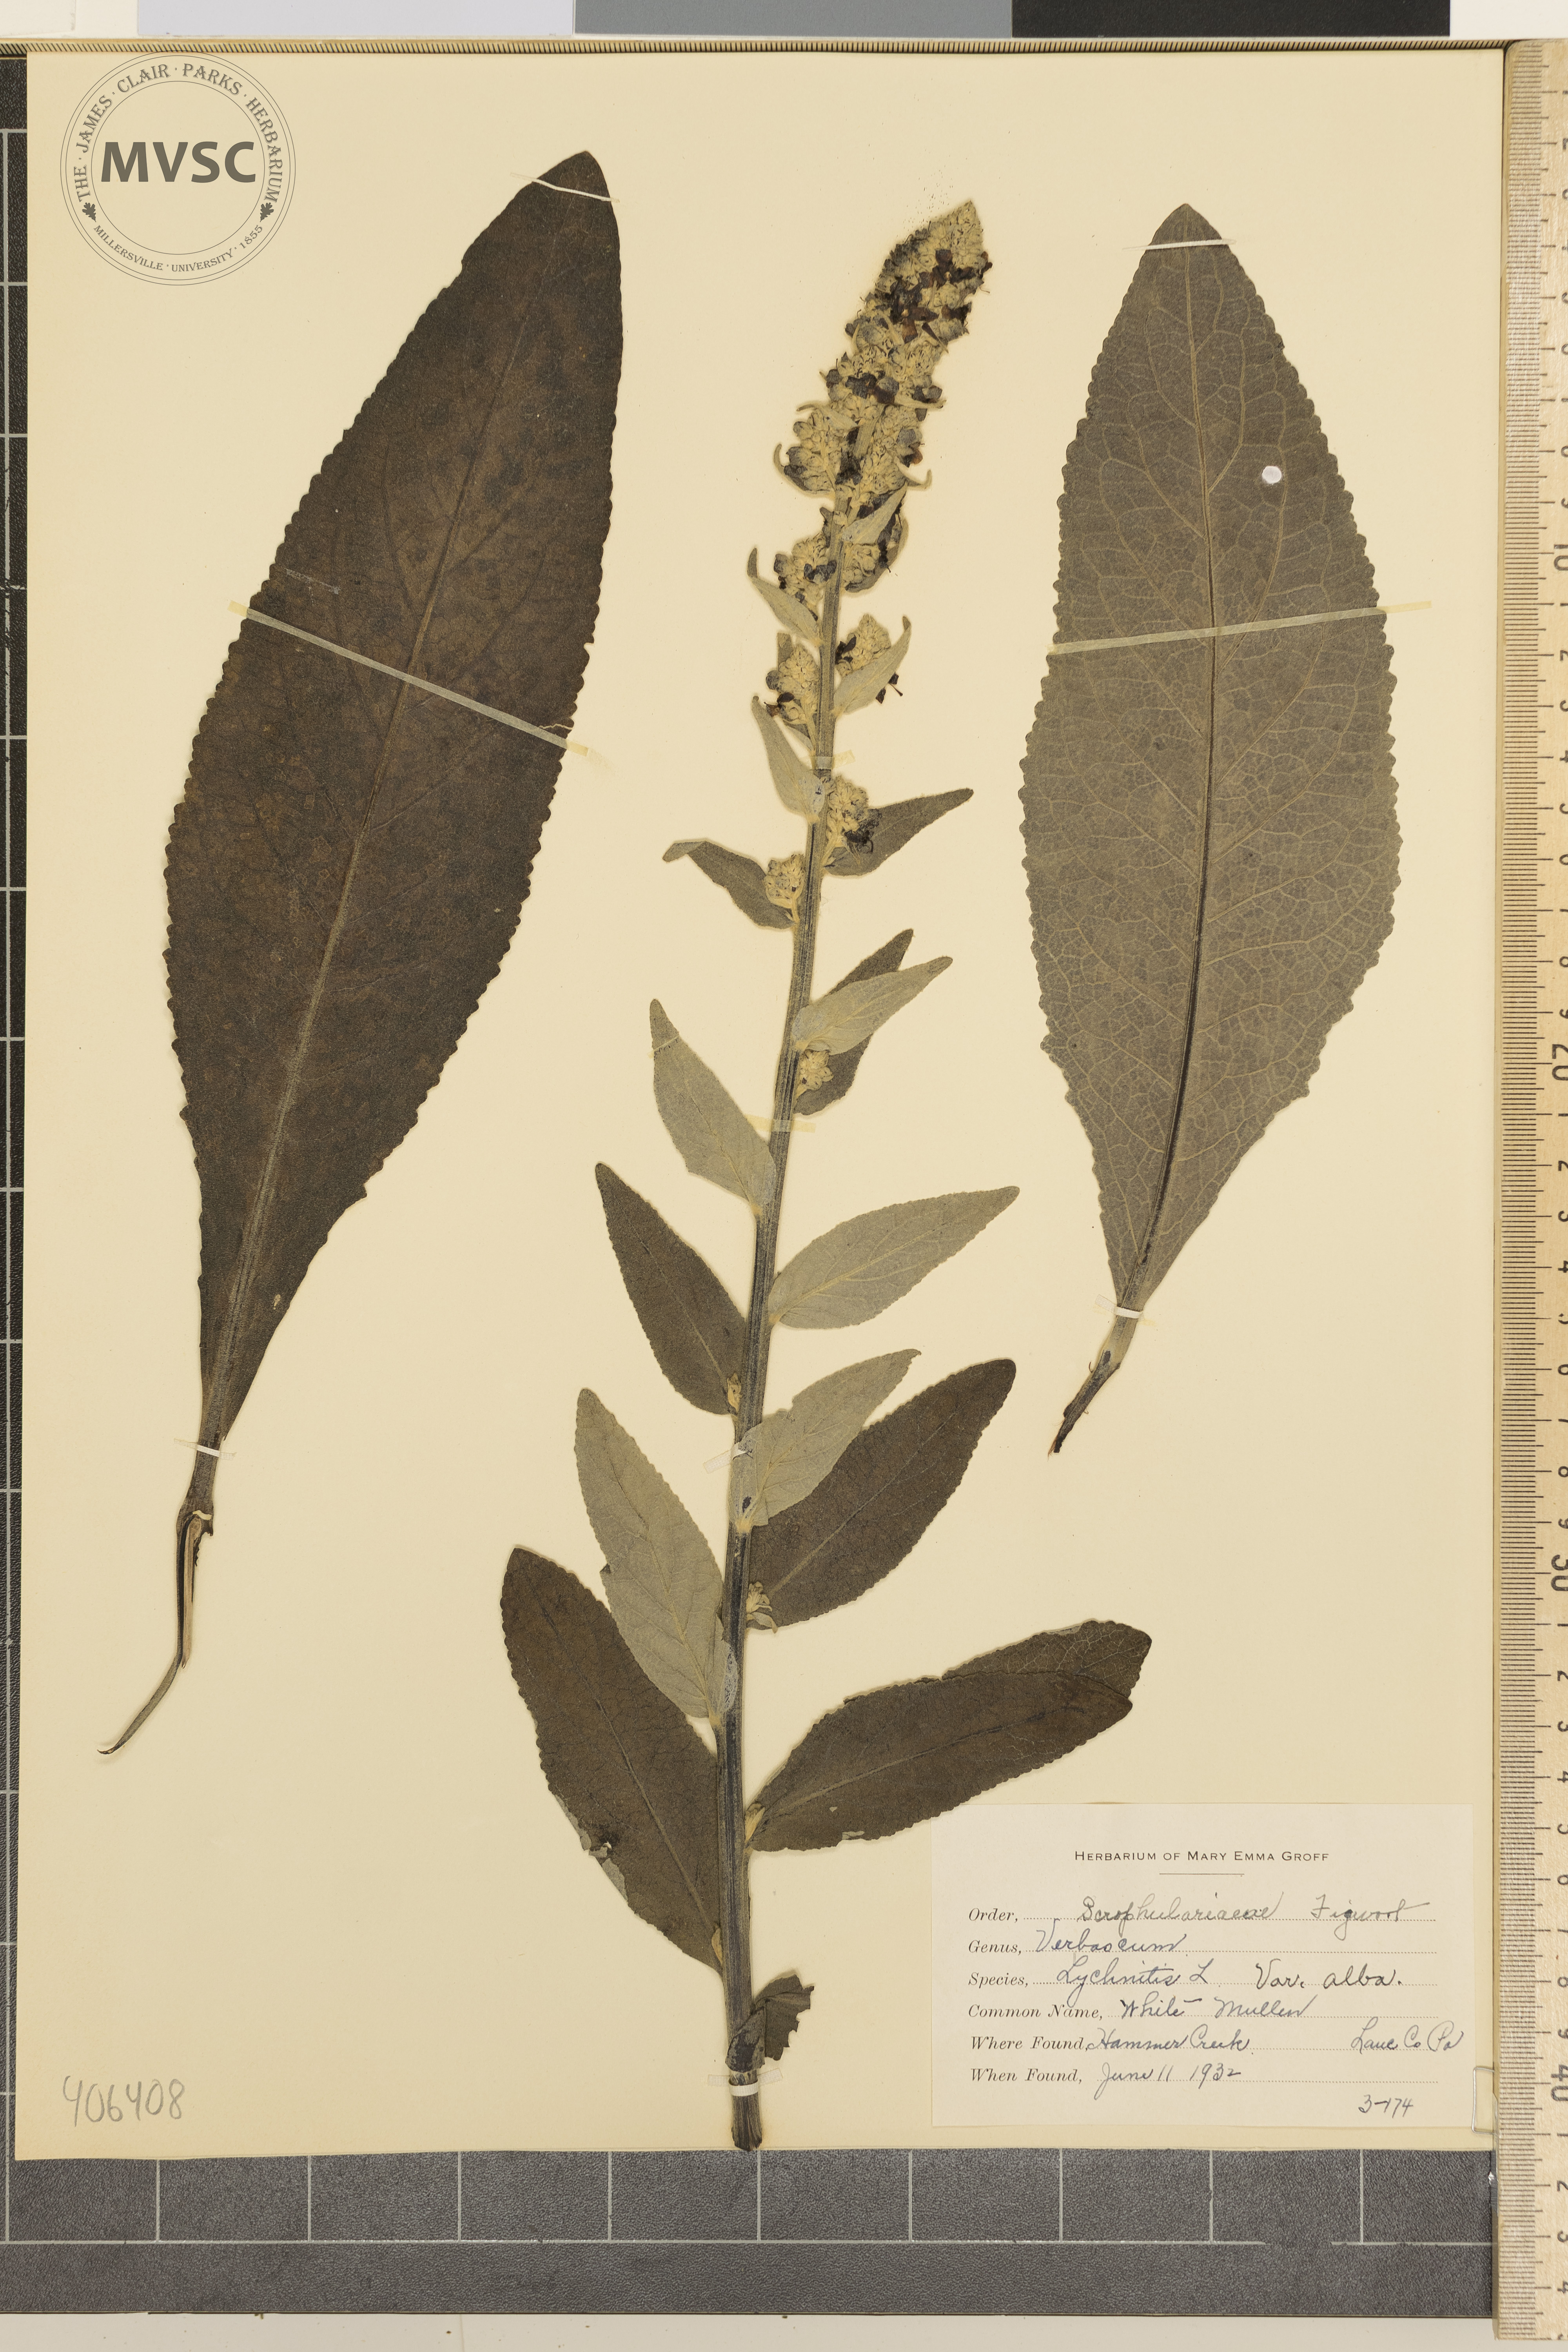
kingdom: Plantae
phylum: Tracheophyta
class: Magnoliopsida
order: Lamiales
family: Scrophulariaceae
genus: Verbascum
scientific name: Verbascum lychnitis
